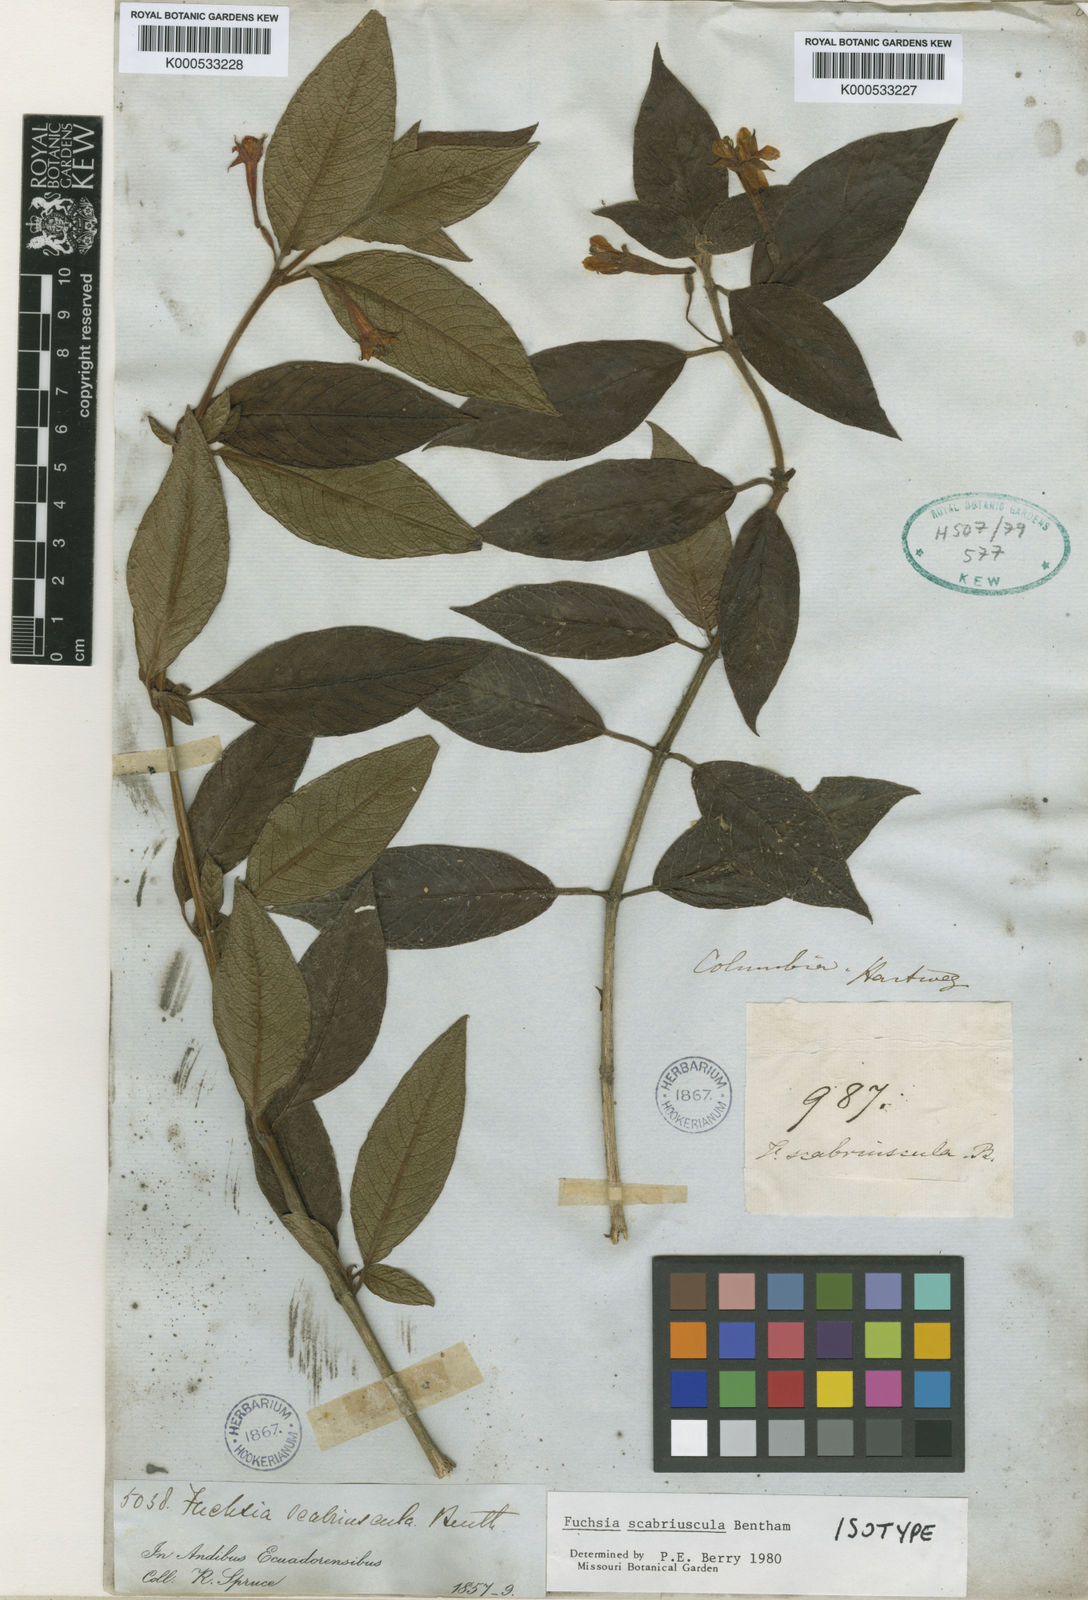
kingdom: Plantae
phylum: Tracheophyta
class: Magnoliopsida
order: Myrtales
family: Onagraceae
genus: Fuchsia
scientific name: Fuchsia scabriuscula
